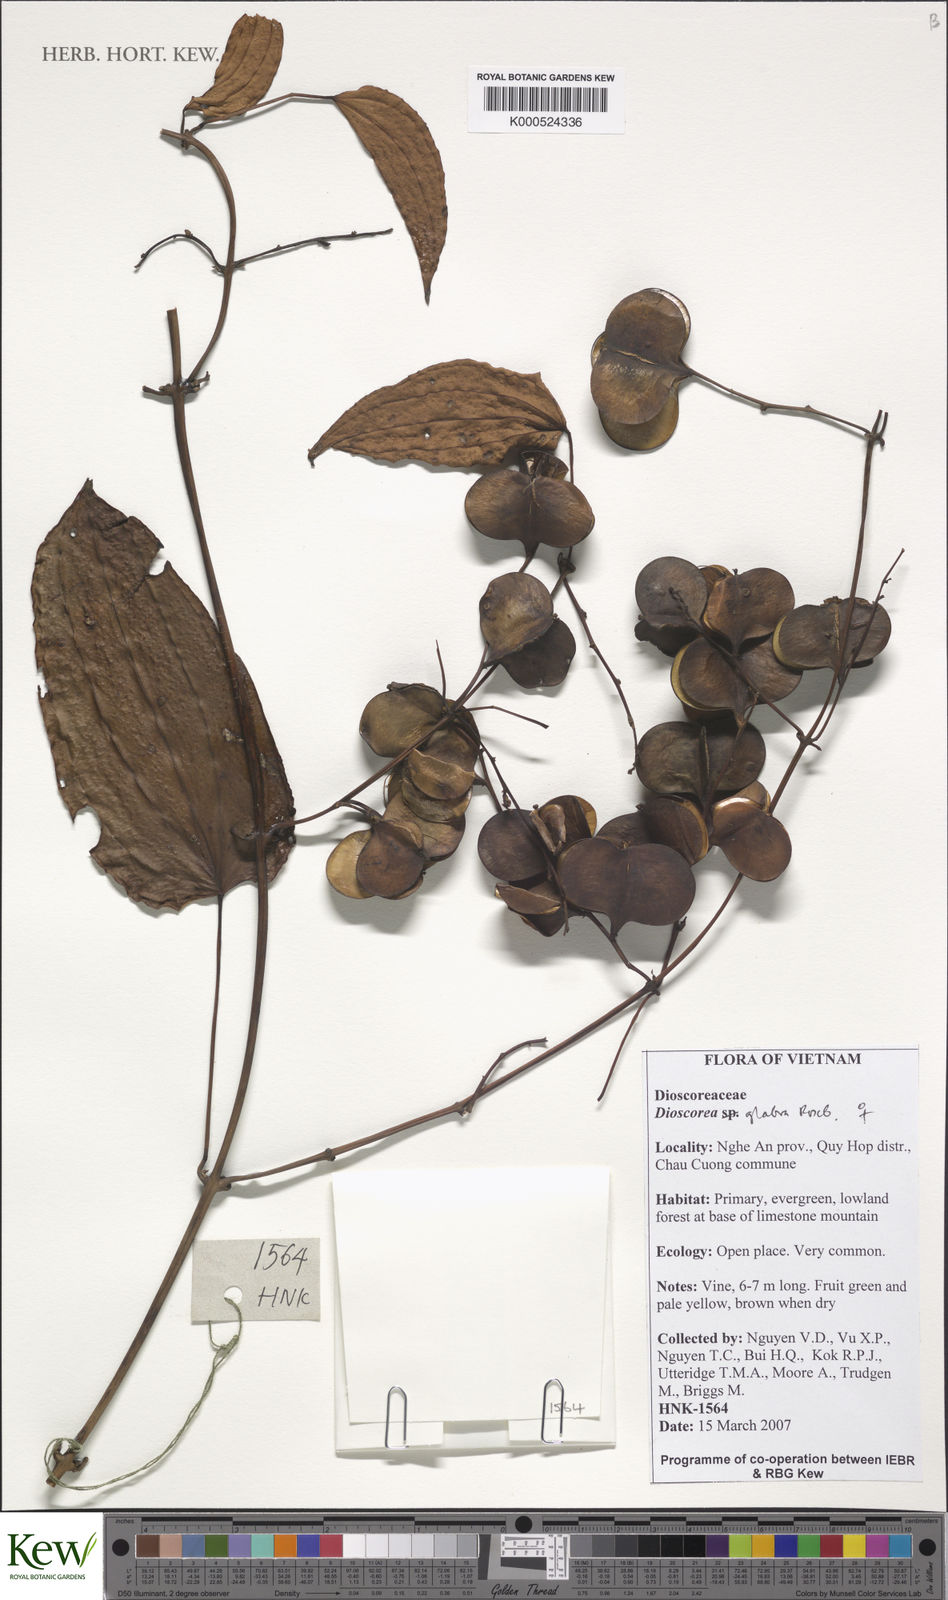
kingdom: Plantae
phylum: Tracheophyta
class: Liliopsida
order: Dioscoreales
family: Dioscoreaceae
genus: Dioscorea
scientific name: Dioscorea glabra
